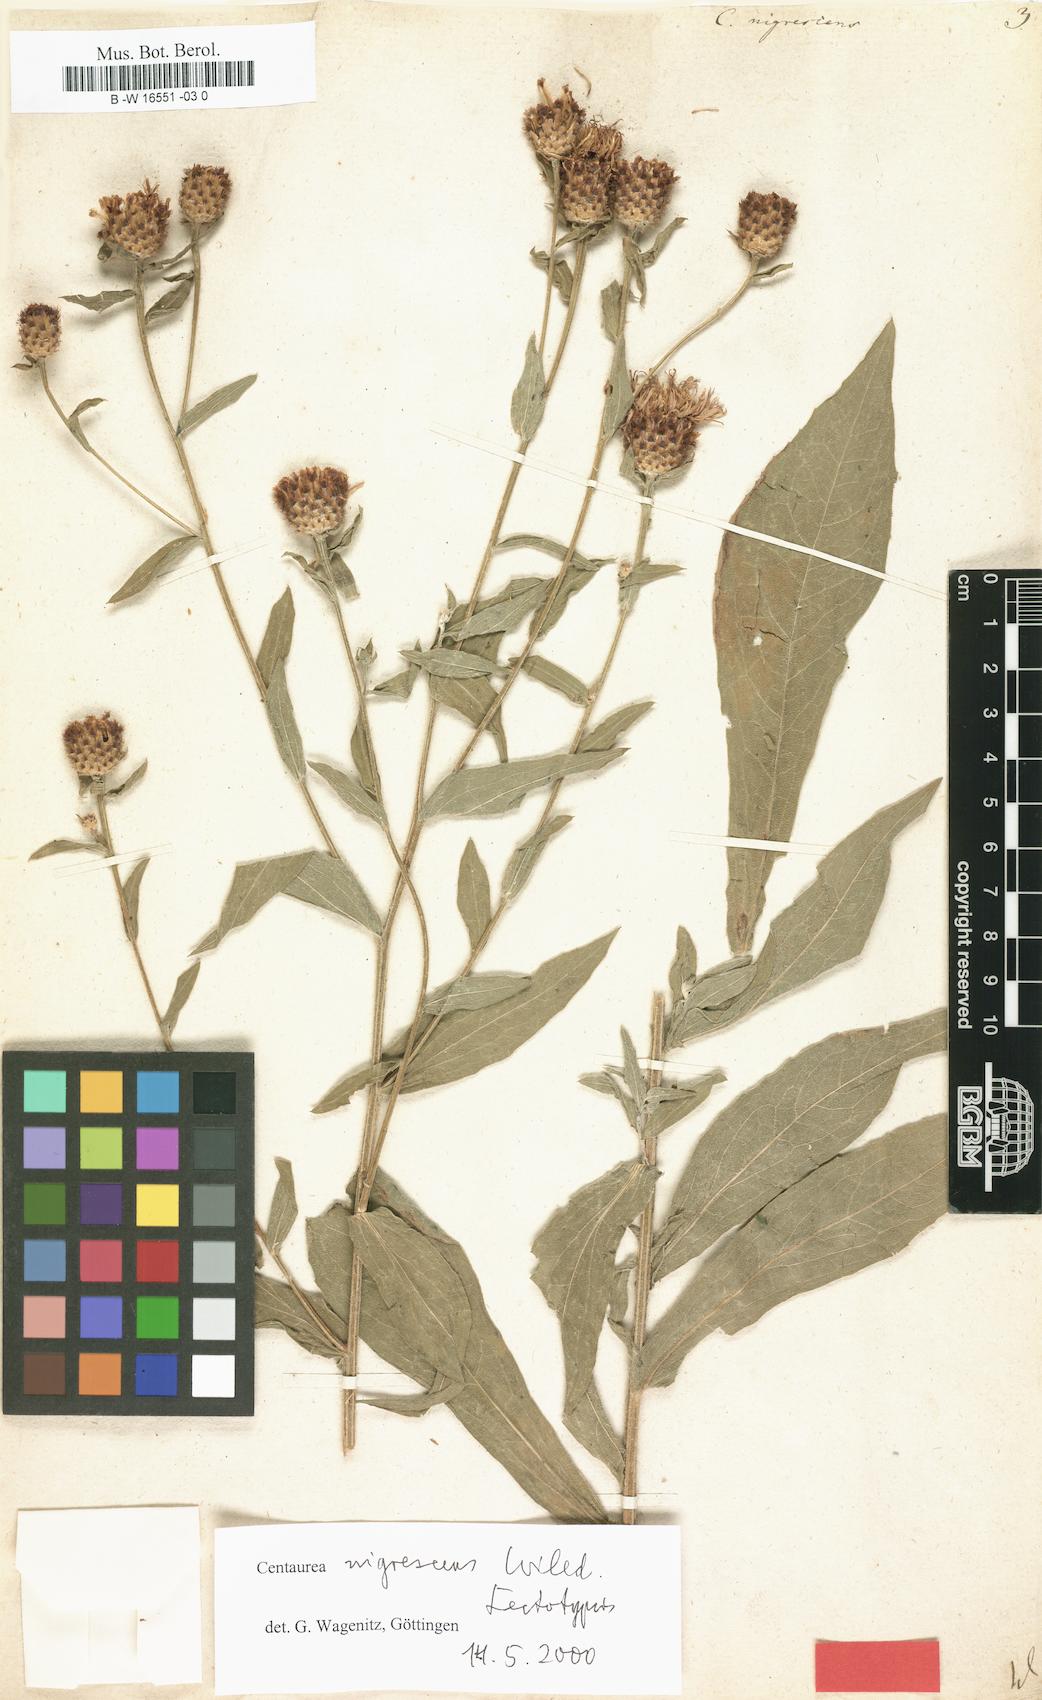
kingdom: Plantae
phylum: Tracheophyta
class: Magnoliopsida
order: Asterales
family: Asteraceae
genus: Centaurea
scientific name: Centaurea nigrescens
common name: Tyrol knapweed
